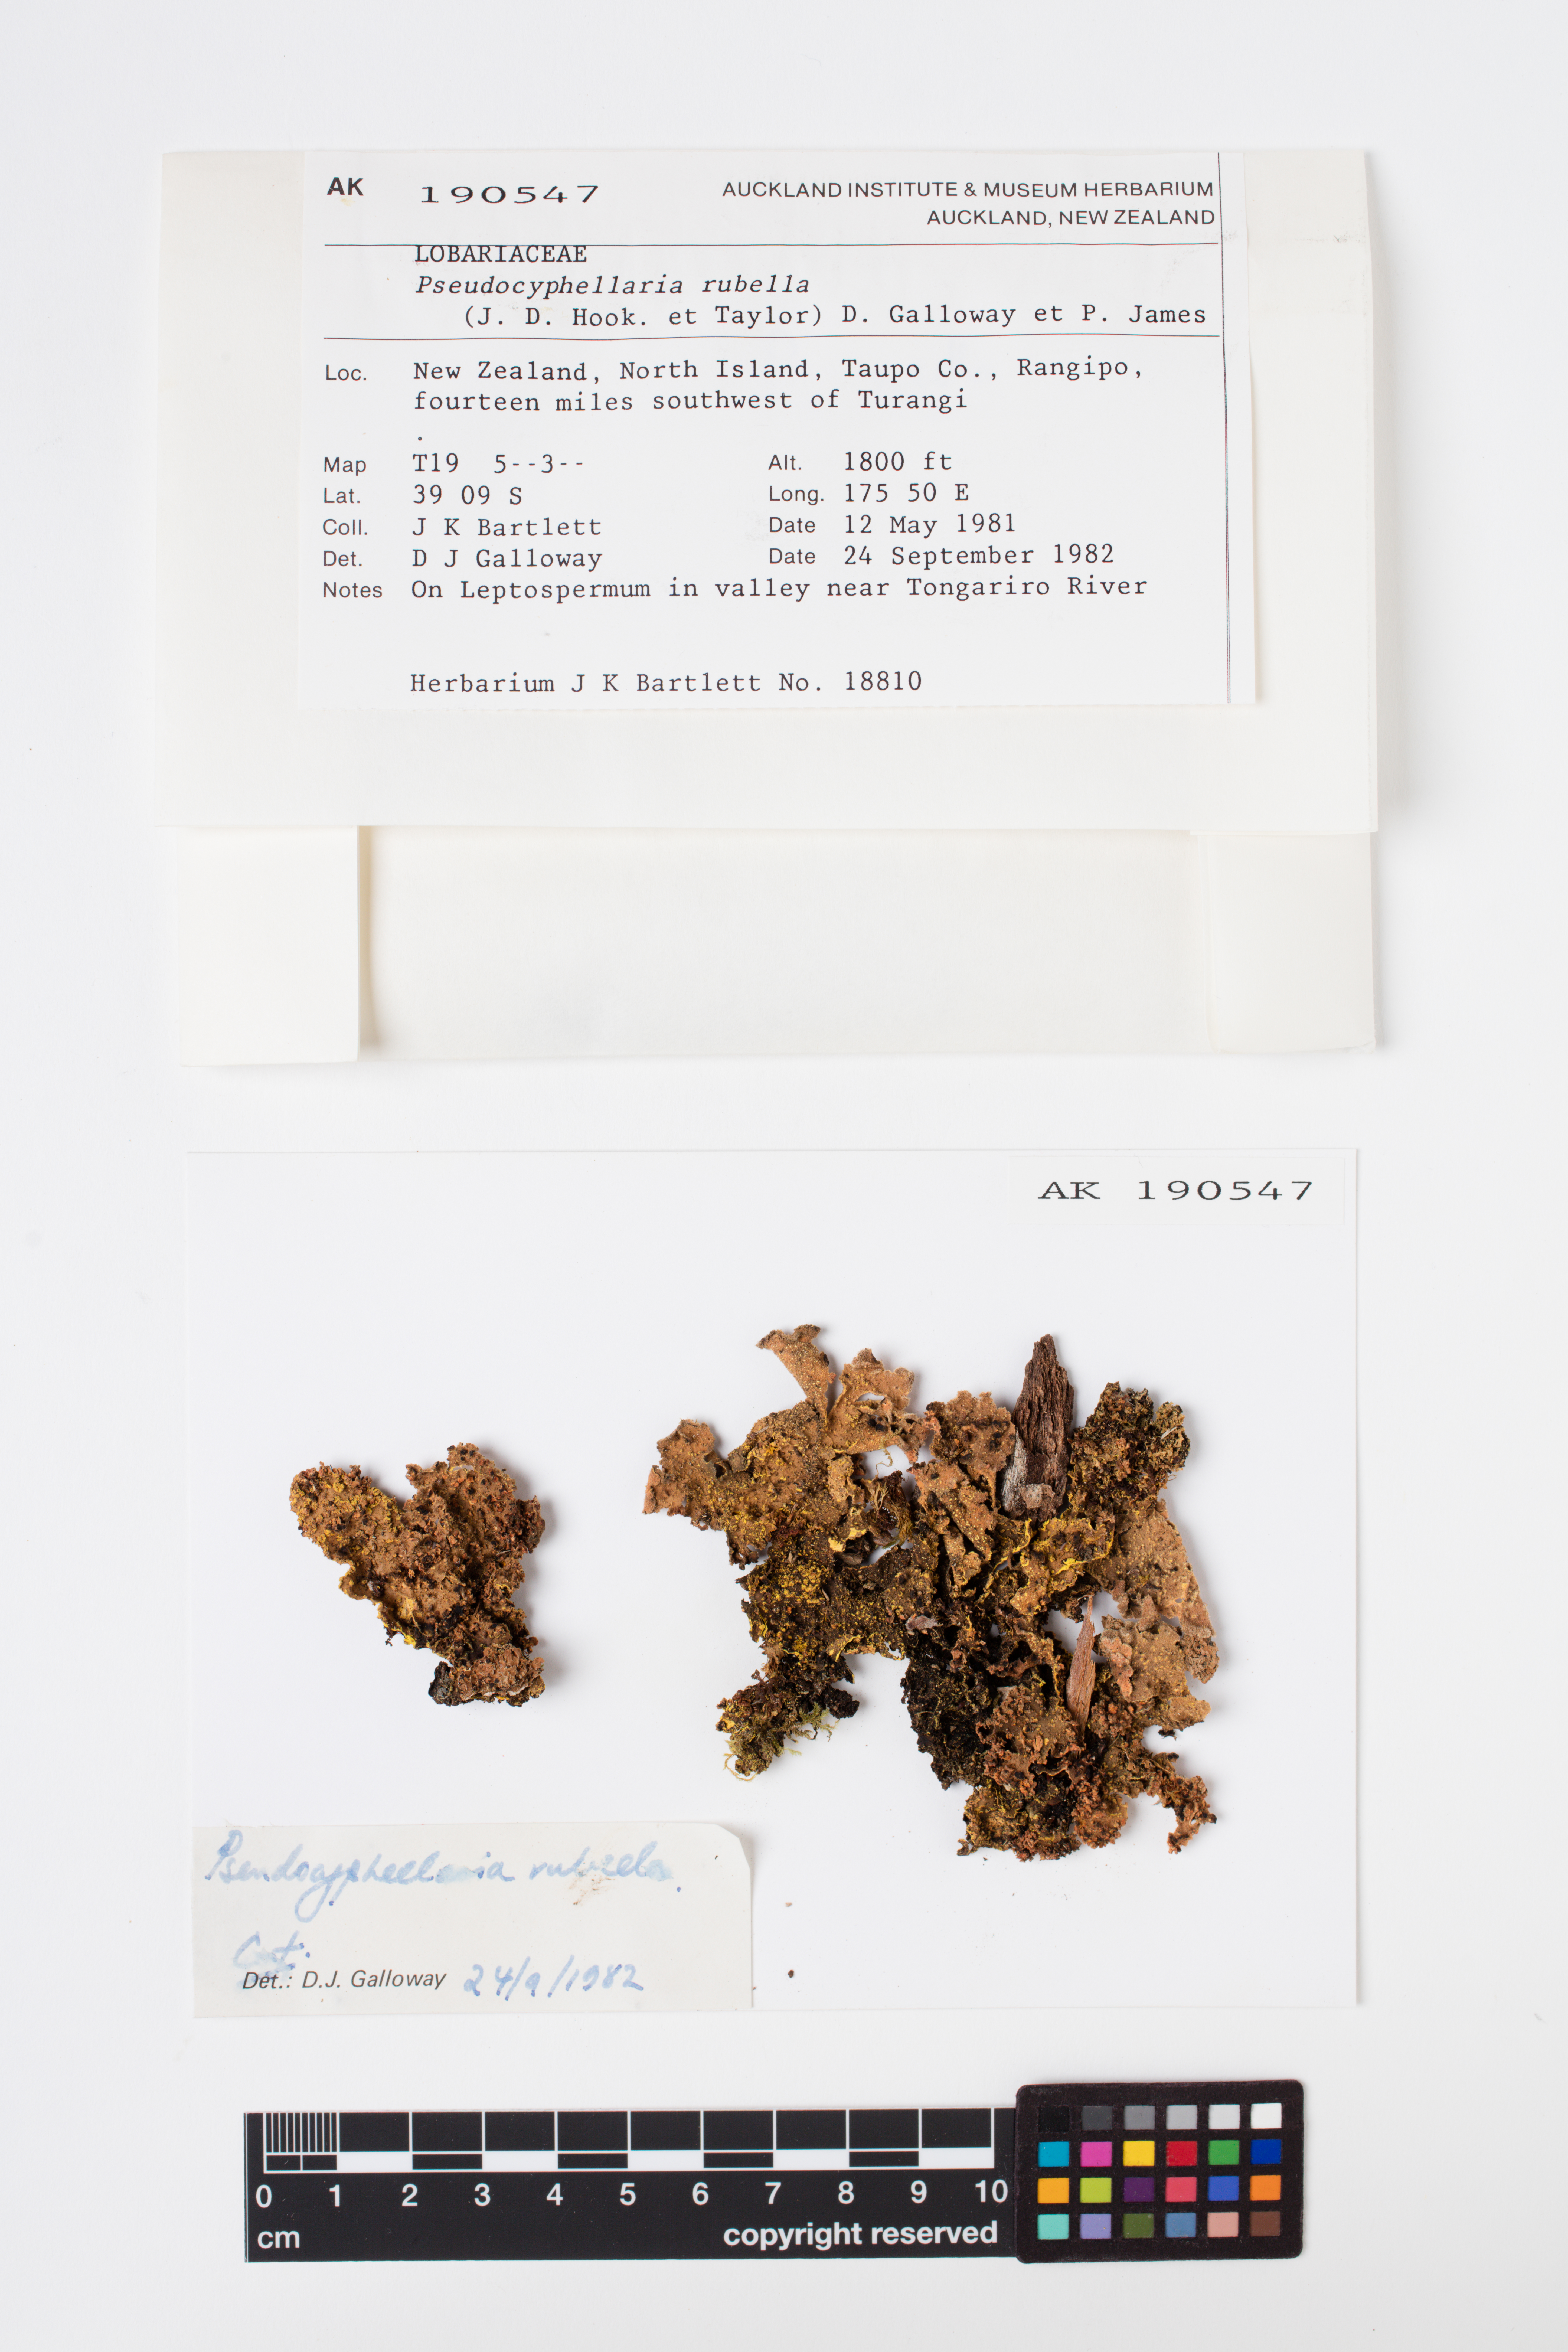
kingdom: Fungi
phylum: Ascomycota
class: Lecanoromycetes
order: Peltigerales
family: Lobariaceae
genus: Pseudocyphellaria
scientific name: Pseudocyphellaria rubella
